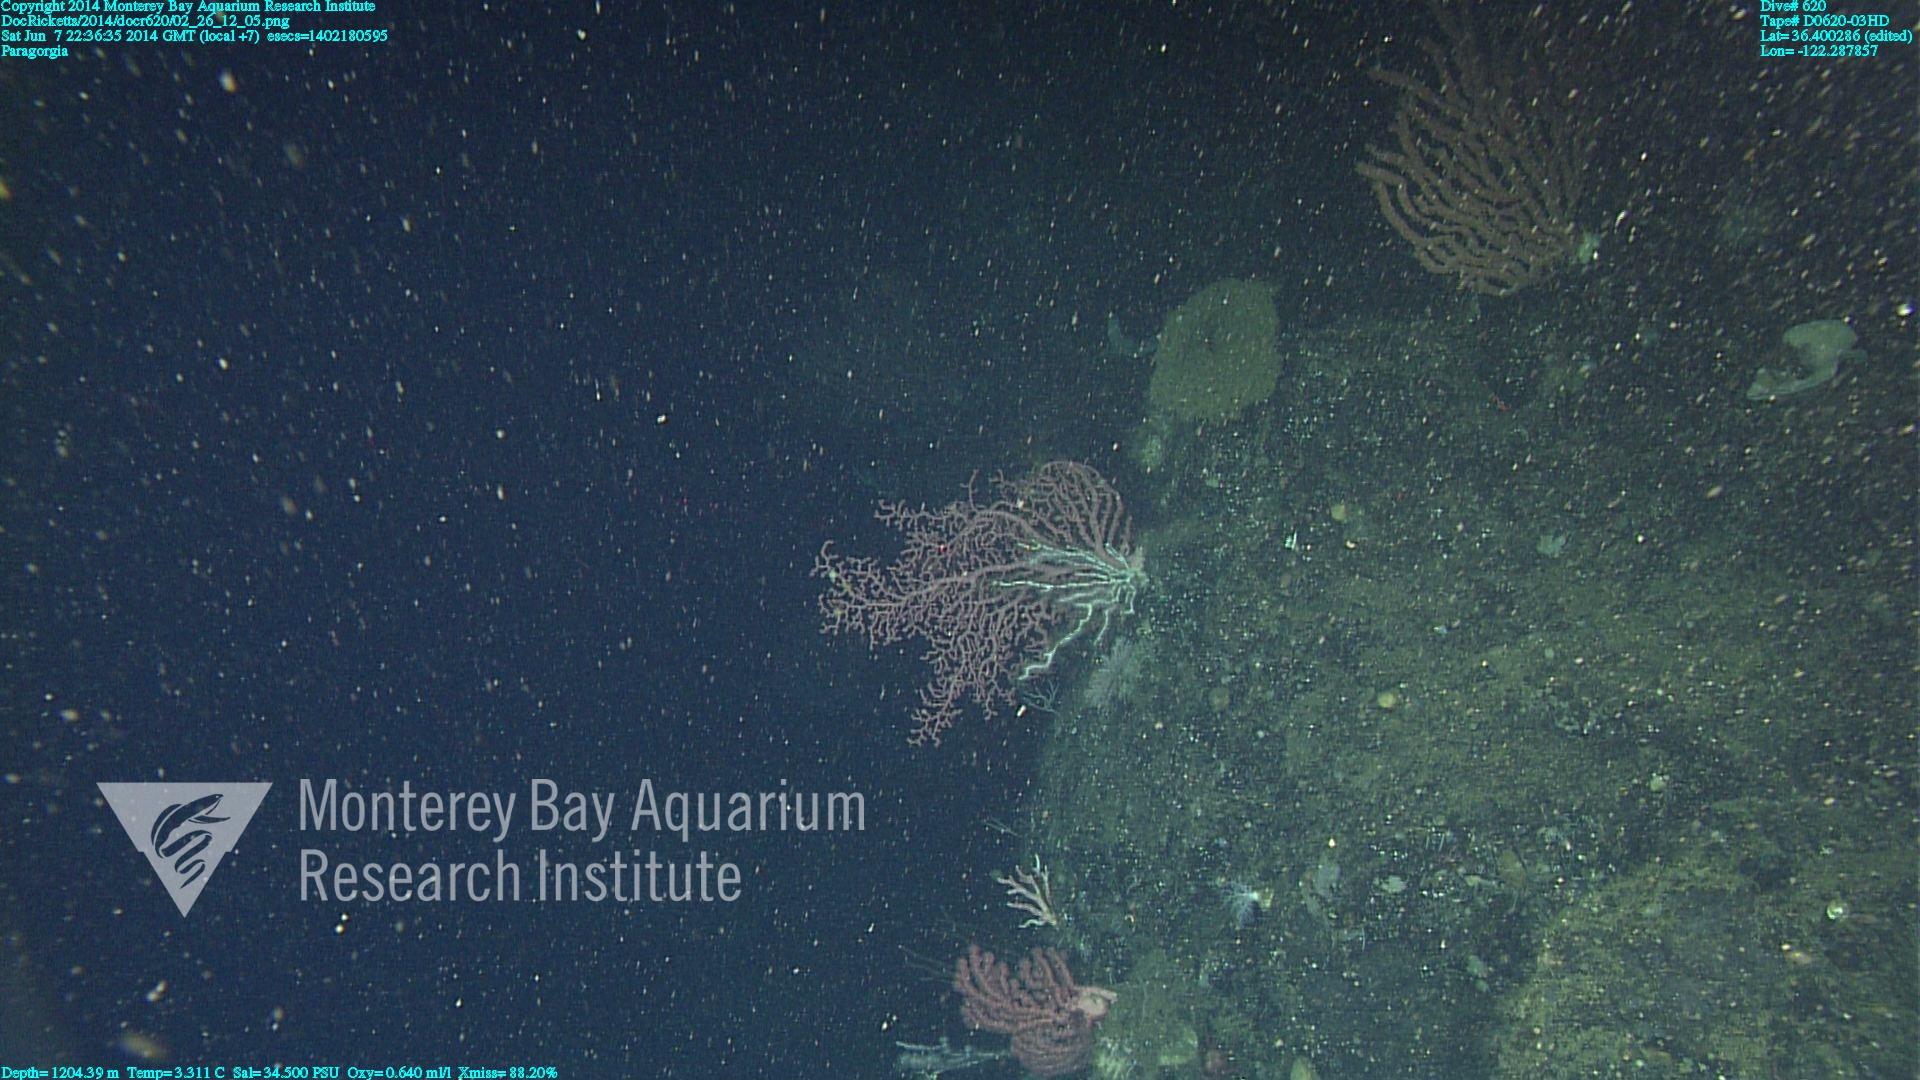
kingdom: Animalia
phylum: Cnidaria
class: Anthozoa
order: Scleralcyonacea
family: Coralliidae
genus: Paragorgia
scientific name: Paragorgia arborea
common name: Bubble gum coral
